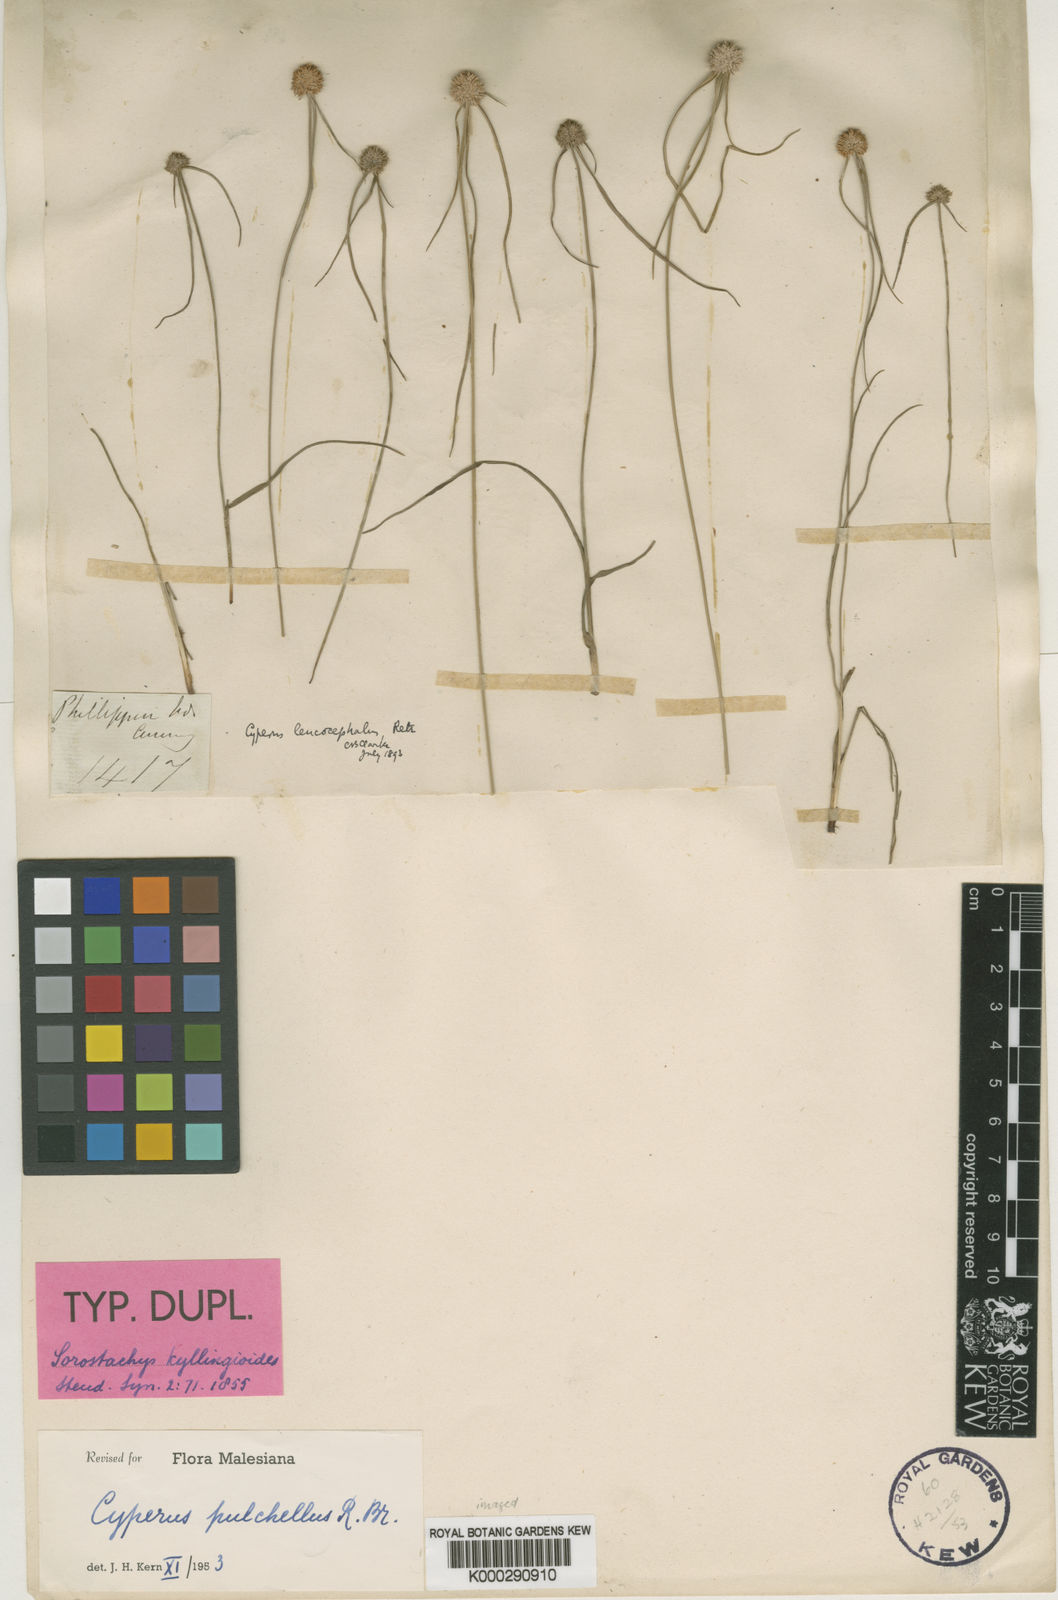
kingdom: Plantae
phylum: Tracheophyta
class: Liliopsida
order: Poales
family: Cyperaceae
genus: Cyperus
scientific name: Cyperus pulchellus
